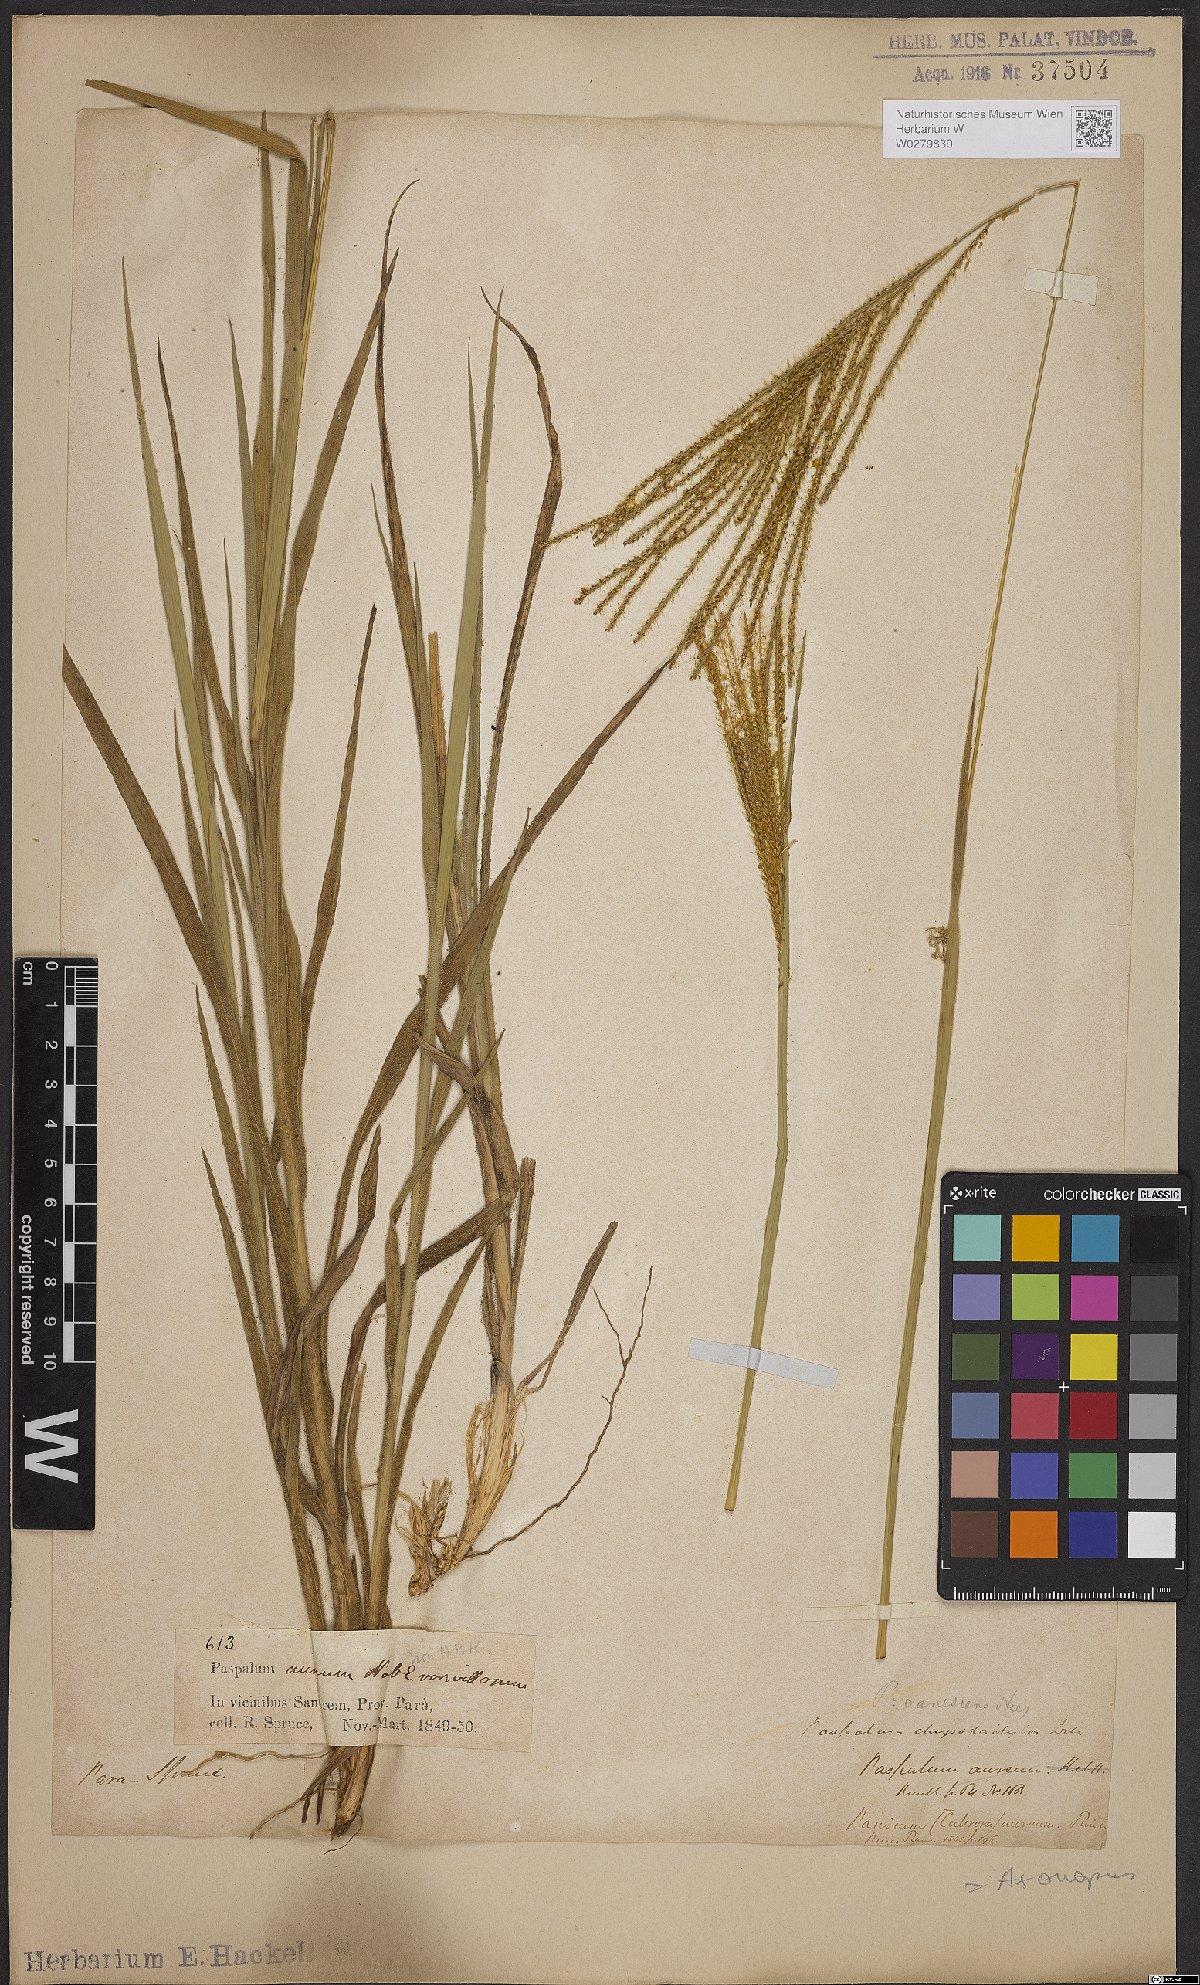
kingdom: Plantae
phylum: Tracheophyta
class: Liliopsida
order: Poales
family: Poaceae
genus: Axonopus
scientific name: Axonopus aureus
